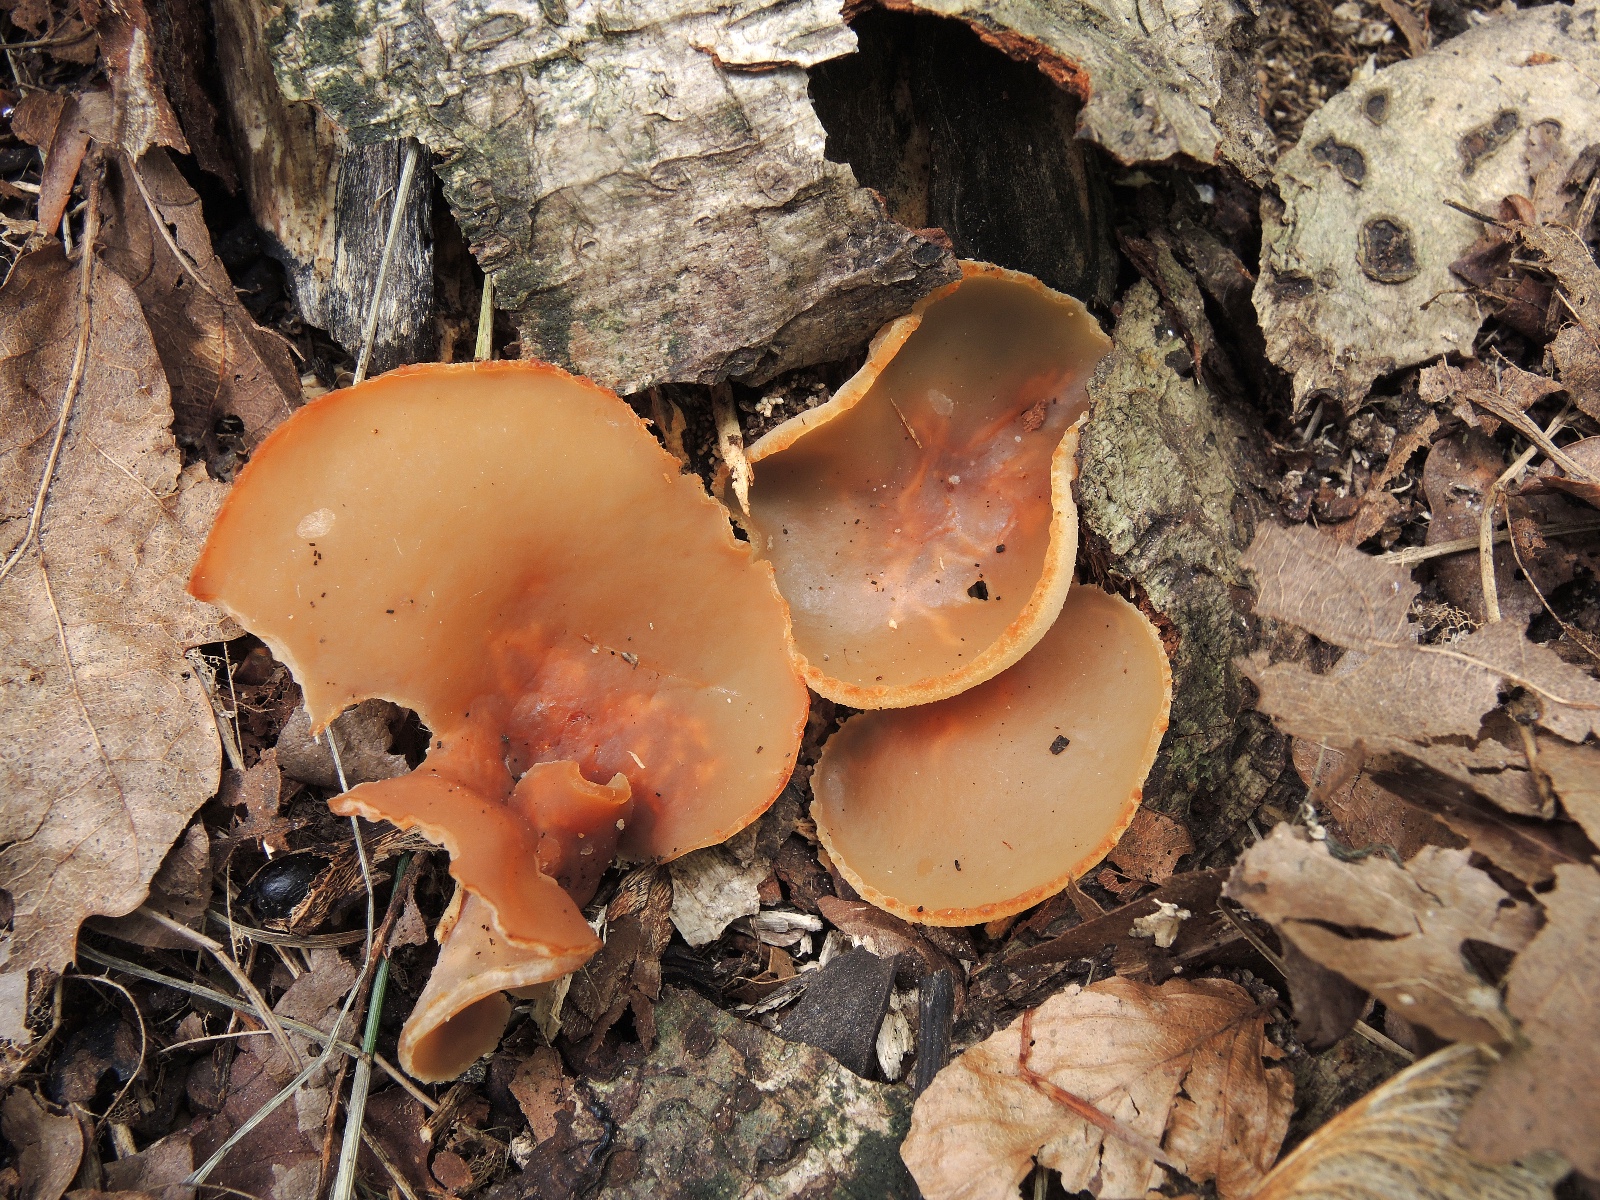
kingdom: Fungi
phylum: Ascomycota
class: Pezizomycetes
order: Pezizales
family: Pezizaceae
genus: Peziza
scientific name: Peziza varia
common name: Ved-bægersvamp
